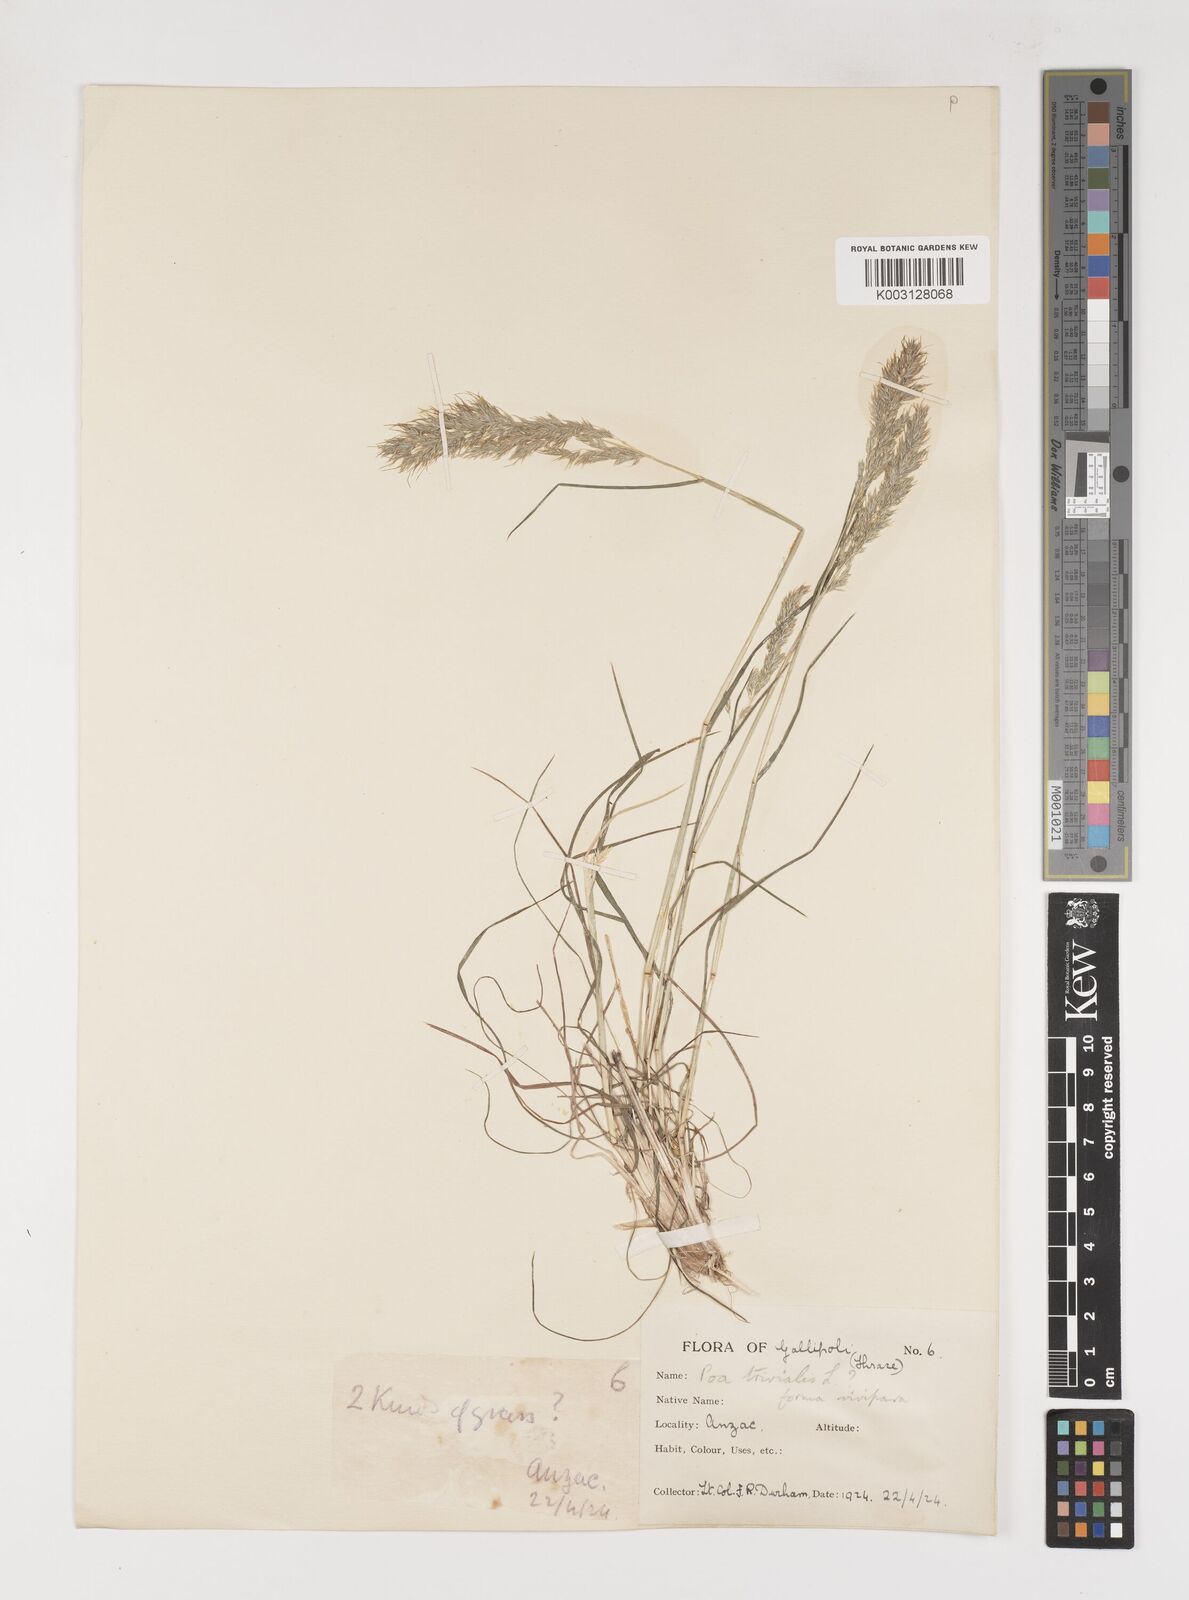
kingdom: Plantae
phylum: Tracheophyta
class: Liliopsida
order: Poales
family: Poaceae
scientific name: Poaceae
